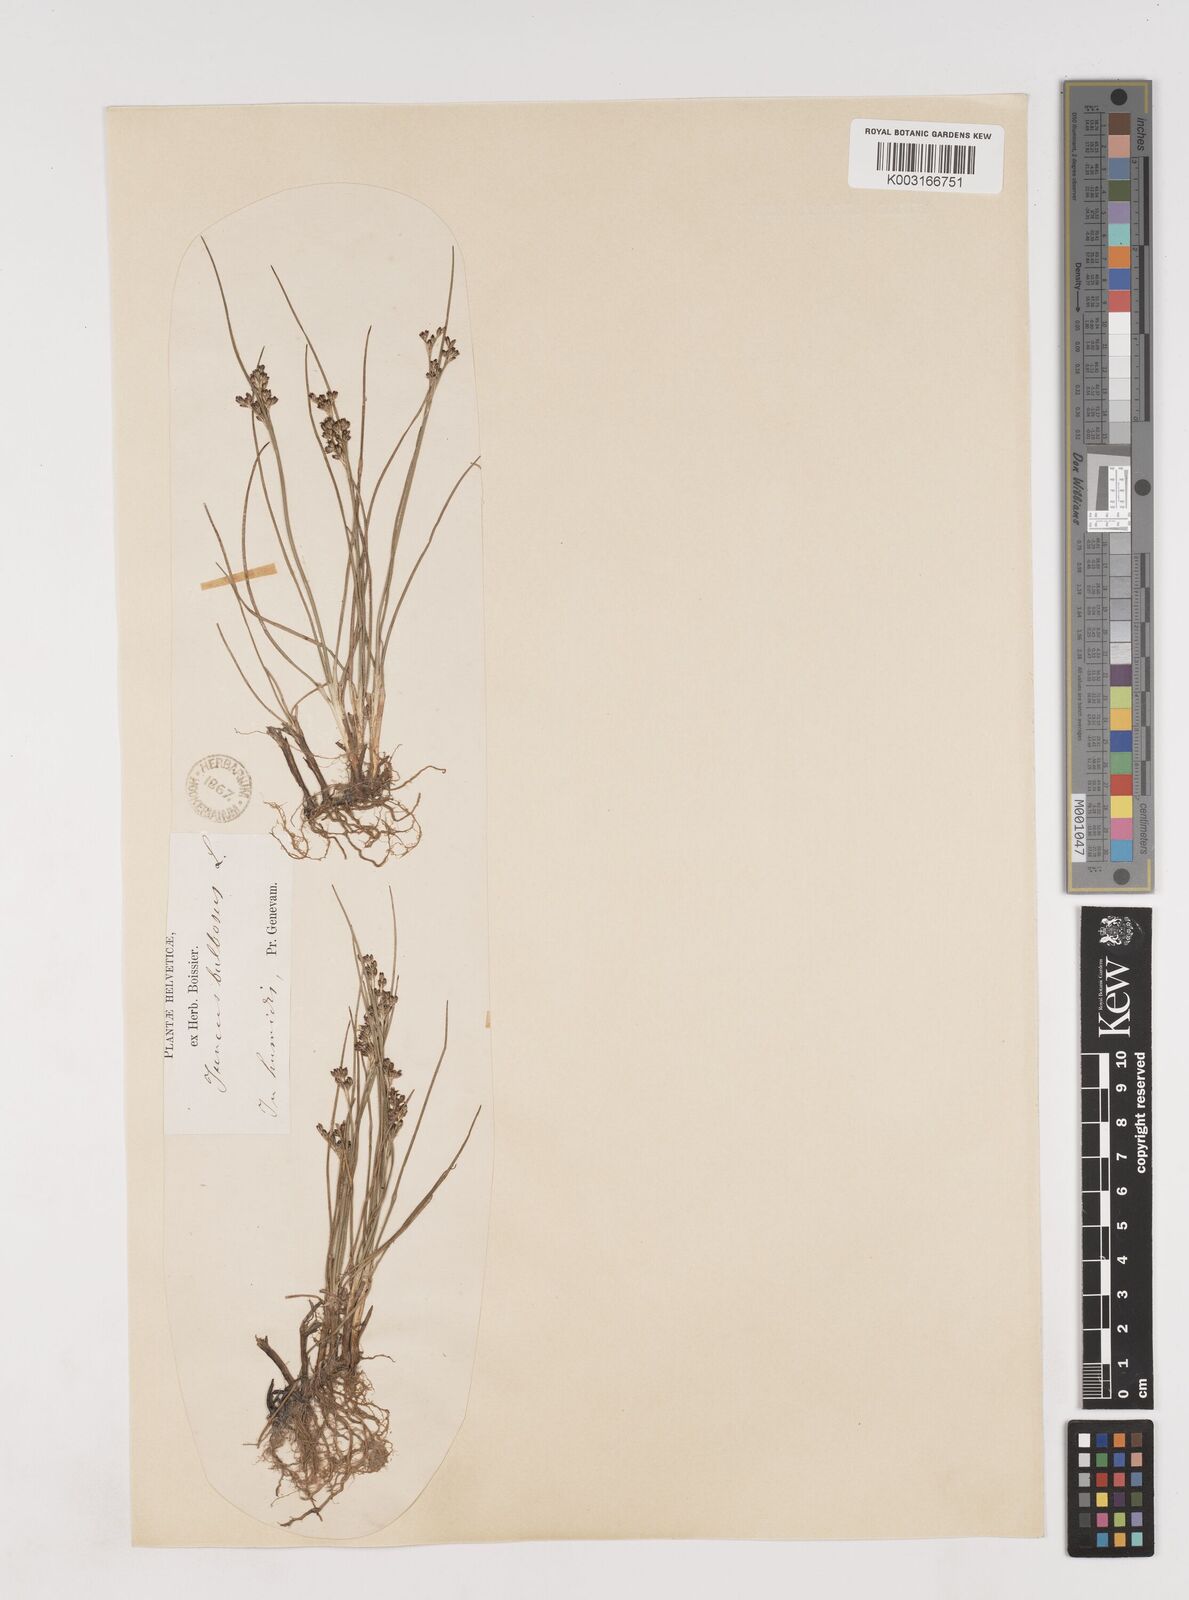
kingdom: Plantae
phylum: Tracheophyta
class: Liliopsida
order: Poales
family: Juncaceae
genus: Juncus
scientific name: Juncus
